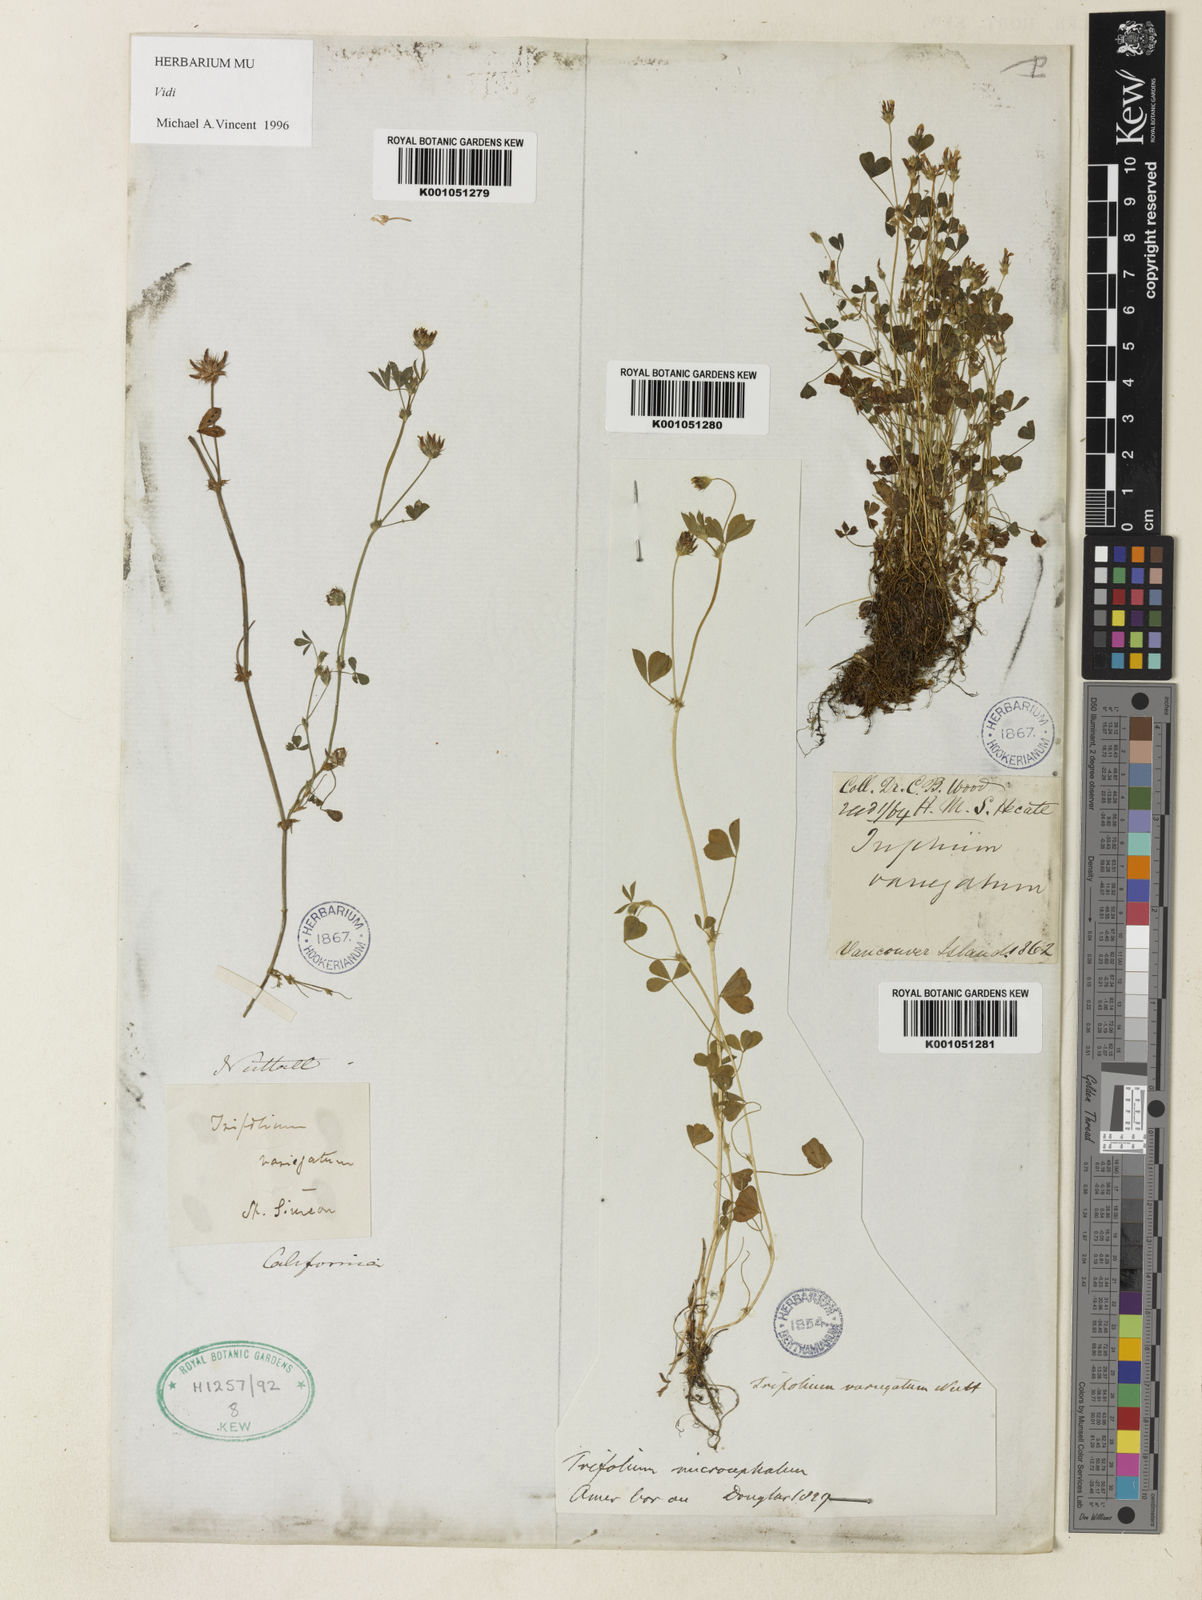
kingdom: Plantae
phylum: Tracheophyta
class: Magnoliopsida
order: Fabales
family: Fabaceae
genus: Trifolium
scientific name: Trifolium variegatum
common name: Whitetip clover
